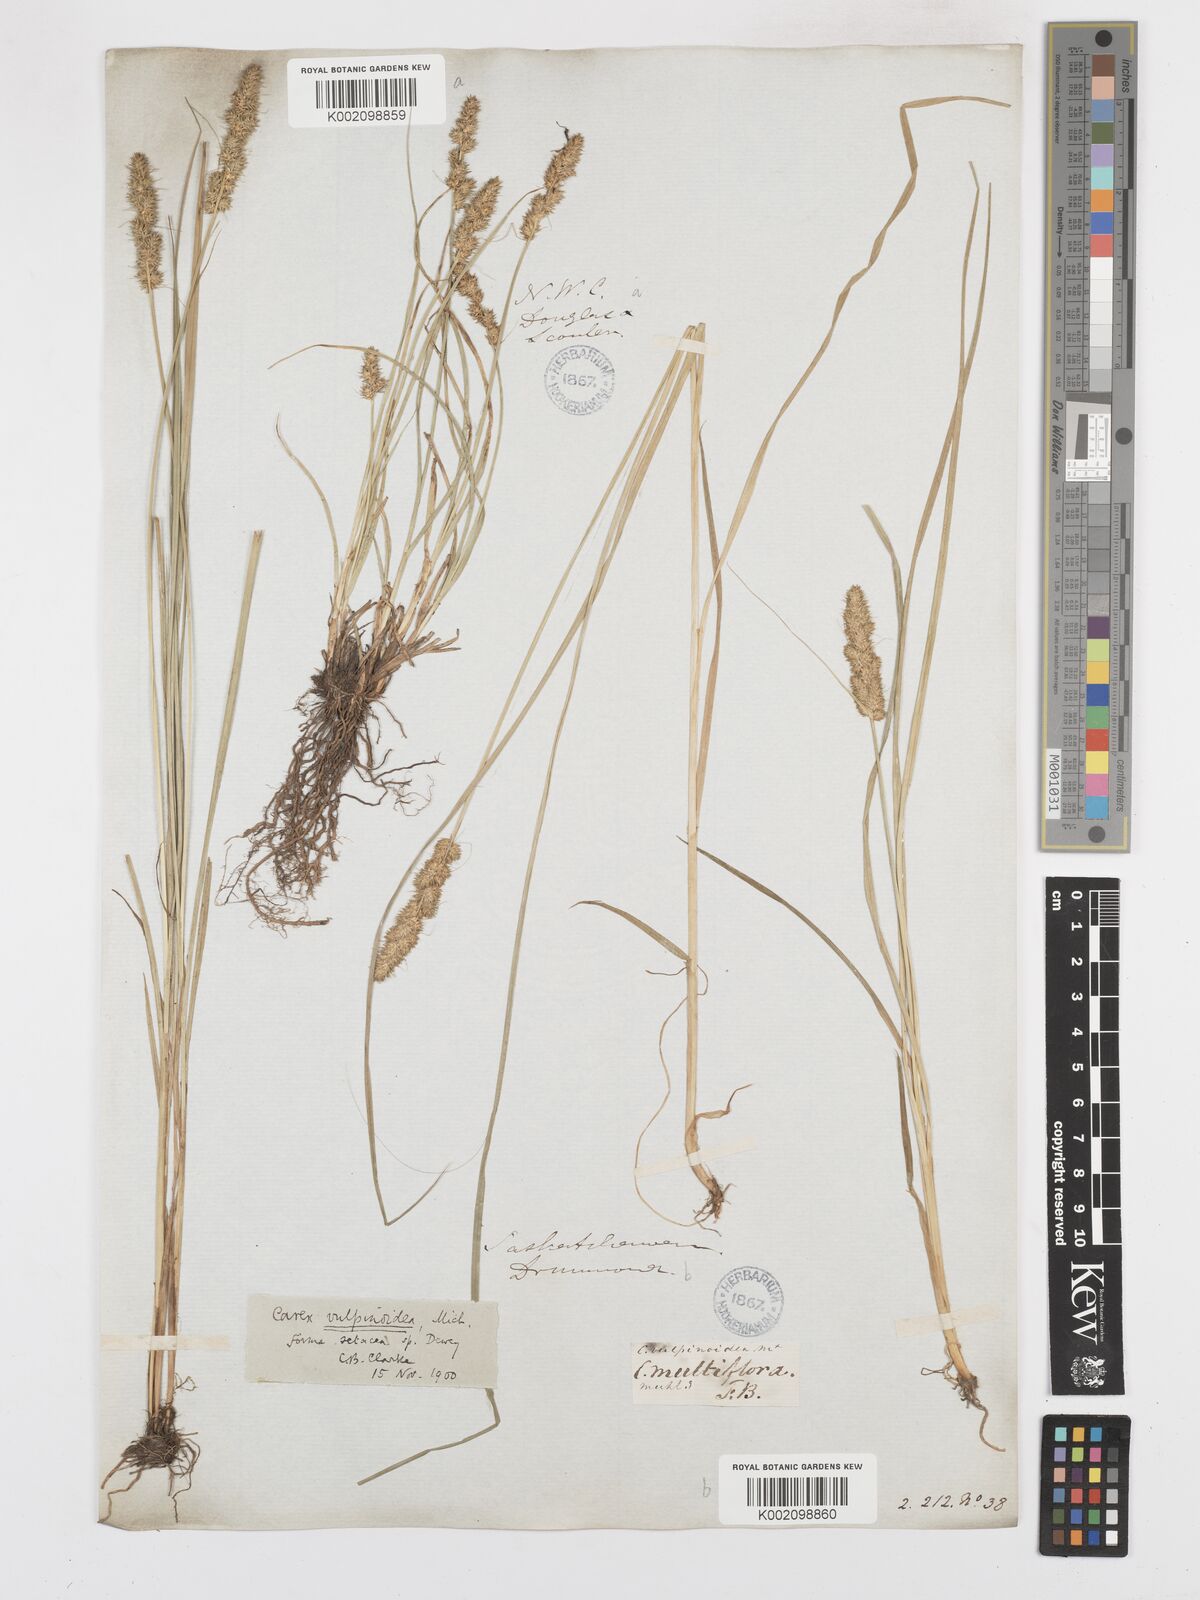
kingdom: Plantae
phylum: Tracheophyta
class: Liliopsida
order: Poales
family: Cyperaceae
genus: Carex
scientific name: Carex vulpinoidea
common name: American fox-sedge
